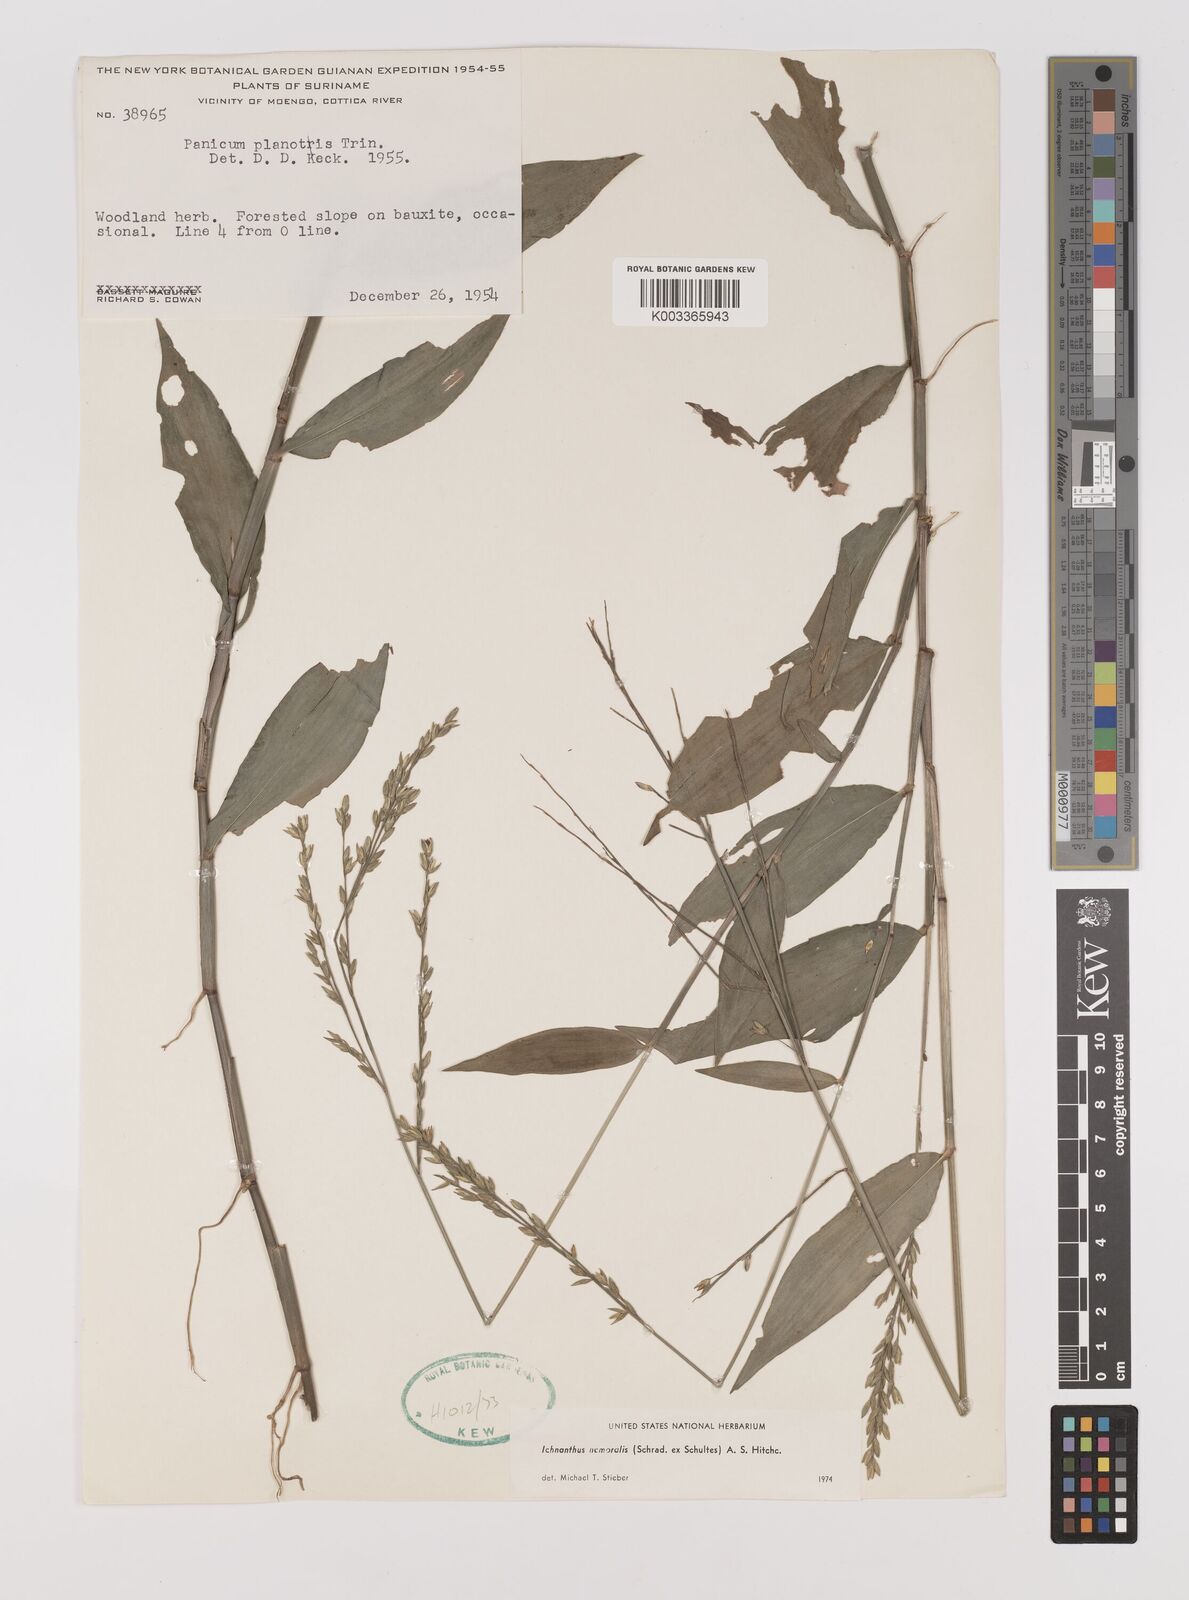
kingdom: Plantae
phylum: Tracheophyta
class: Liliopsida
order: Poales
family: Poaceae
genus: Ichnanthus
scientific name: Ichnanthus nemoralis
